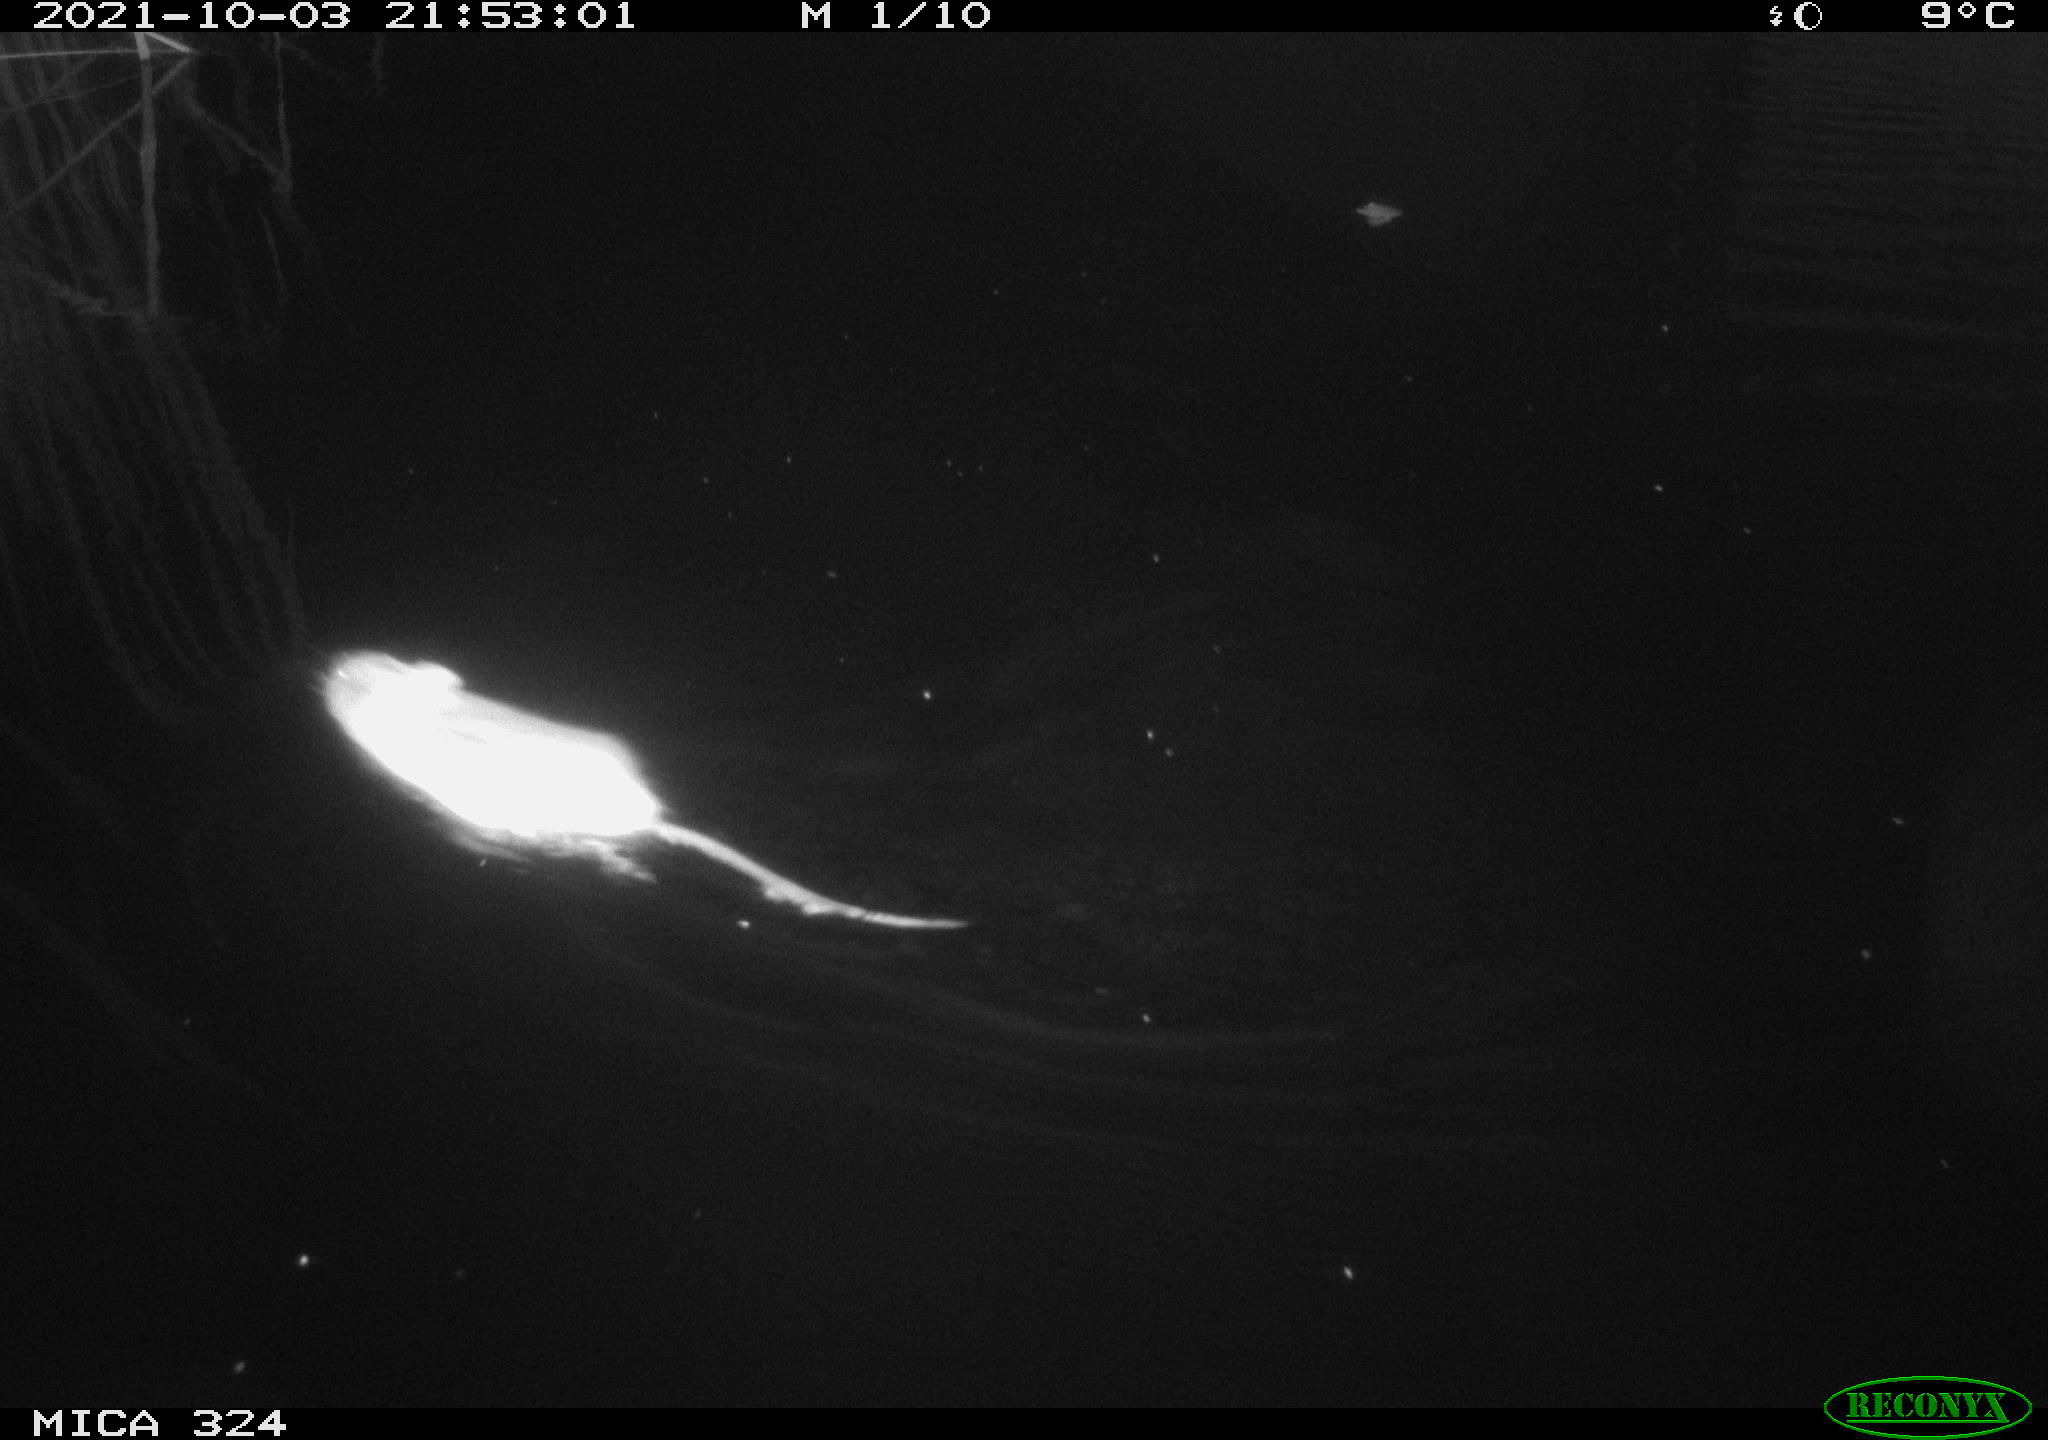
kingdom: Animalia
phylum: Chordata
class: Mammalia
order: Rodentia
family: Cricetidae
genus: Ondatra
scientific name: Ondatra zibethicus
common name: Muskrat
